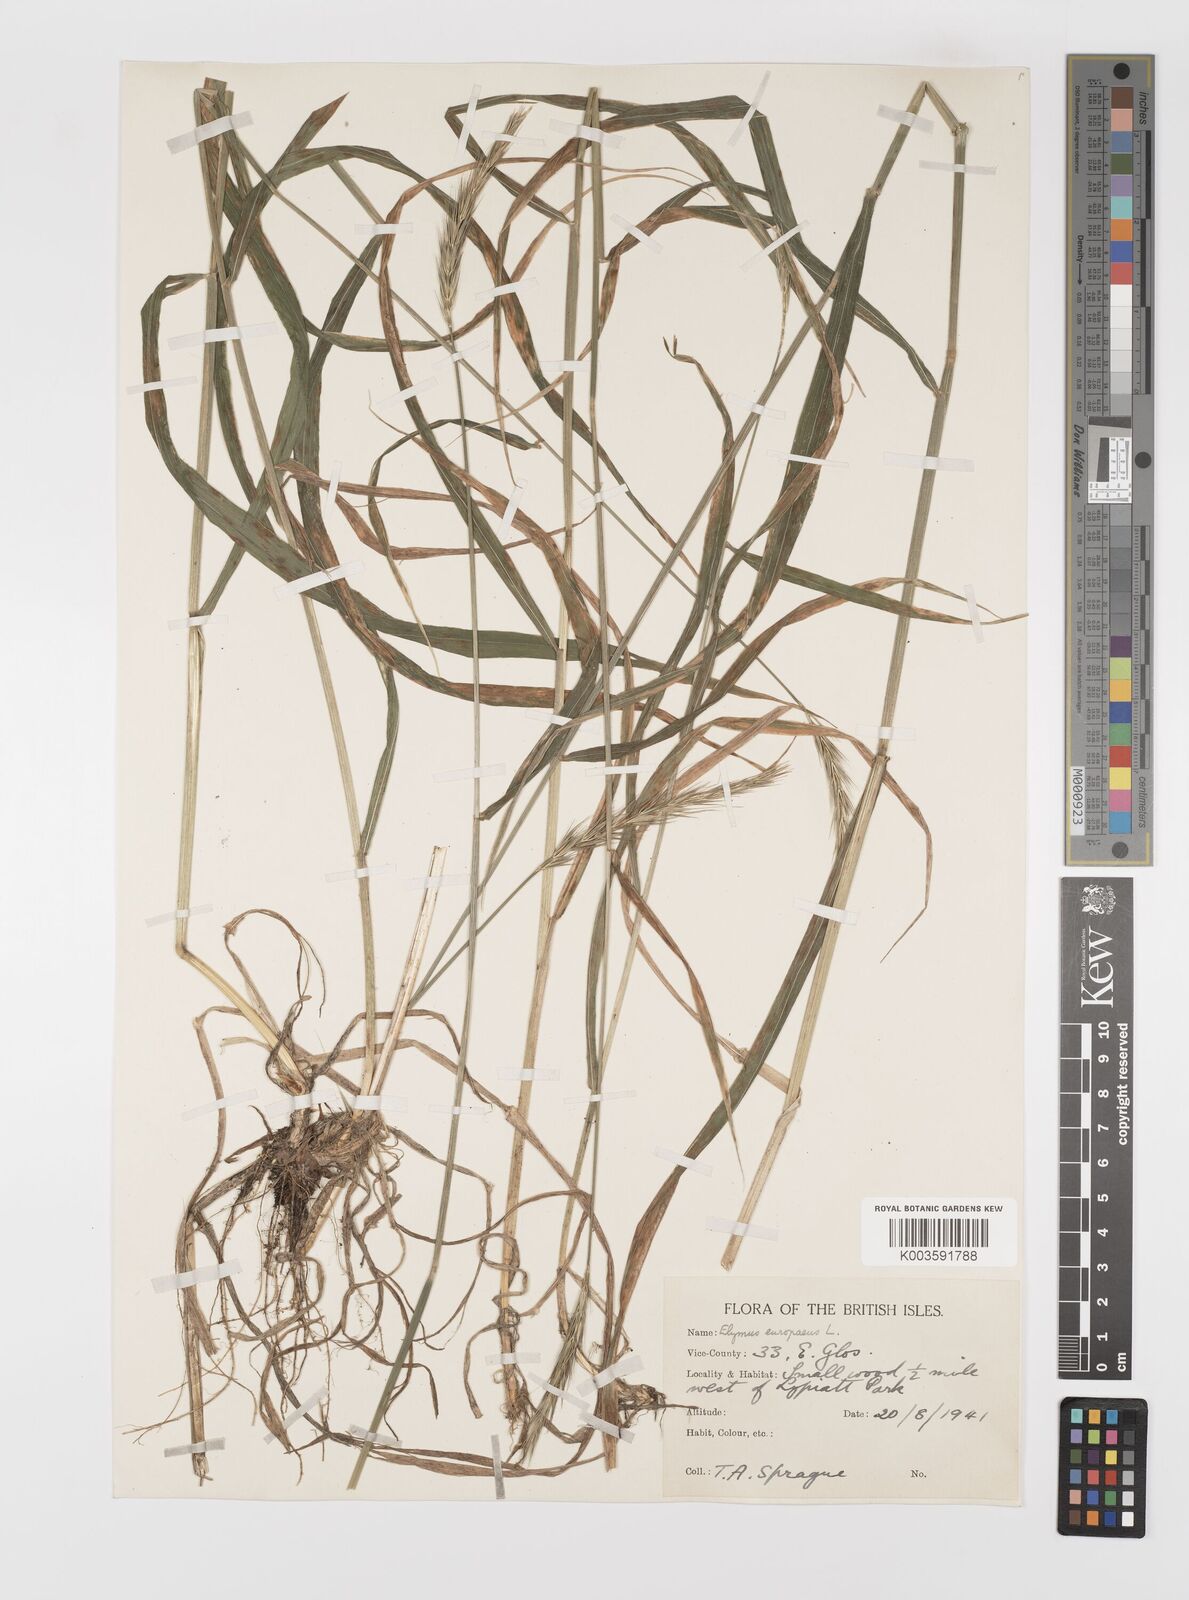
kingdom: Plantae
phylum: Tracheophyta
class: Liliopsida
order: Poales
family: Poaceae
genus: Hordelymus
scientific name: Hordelymus europaeus
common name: Wood-barley
